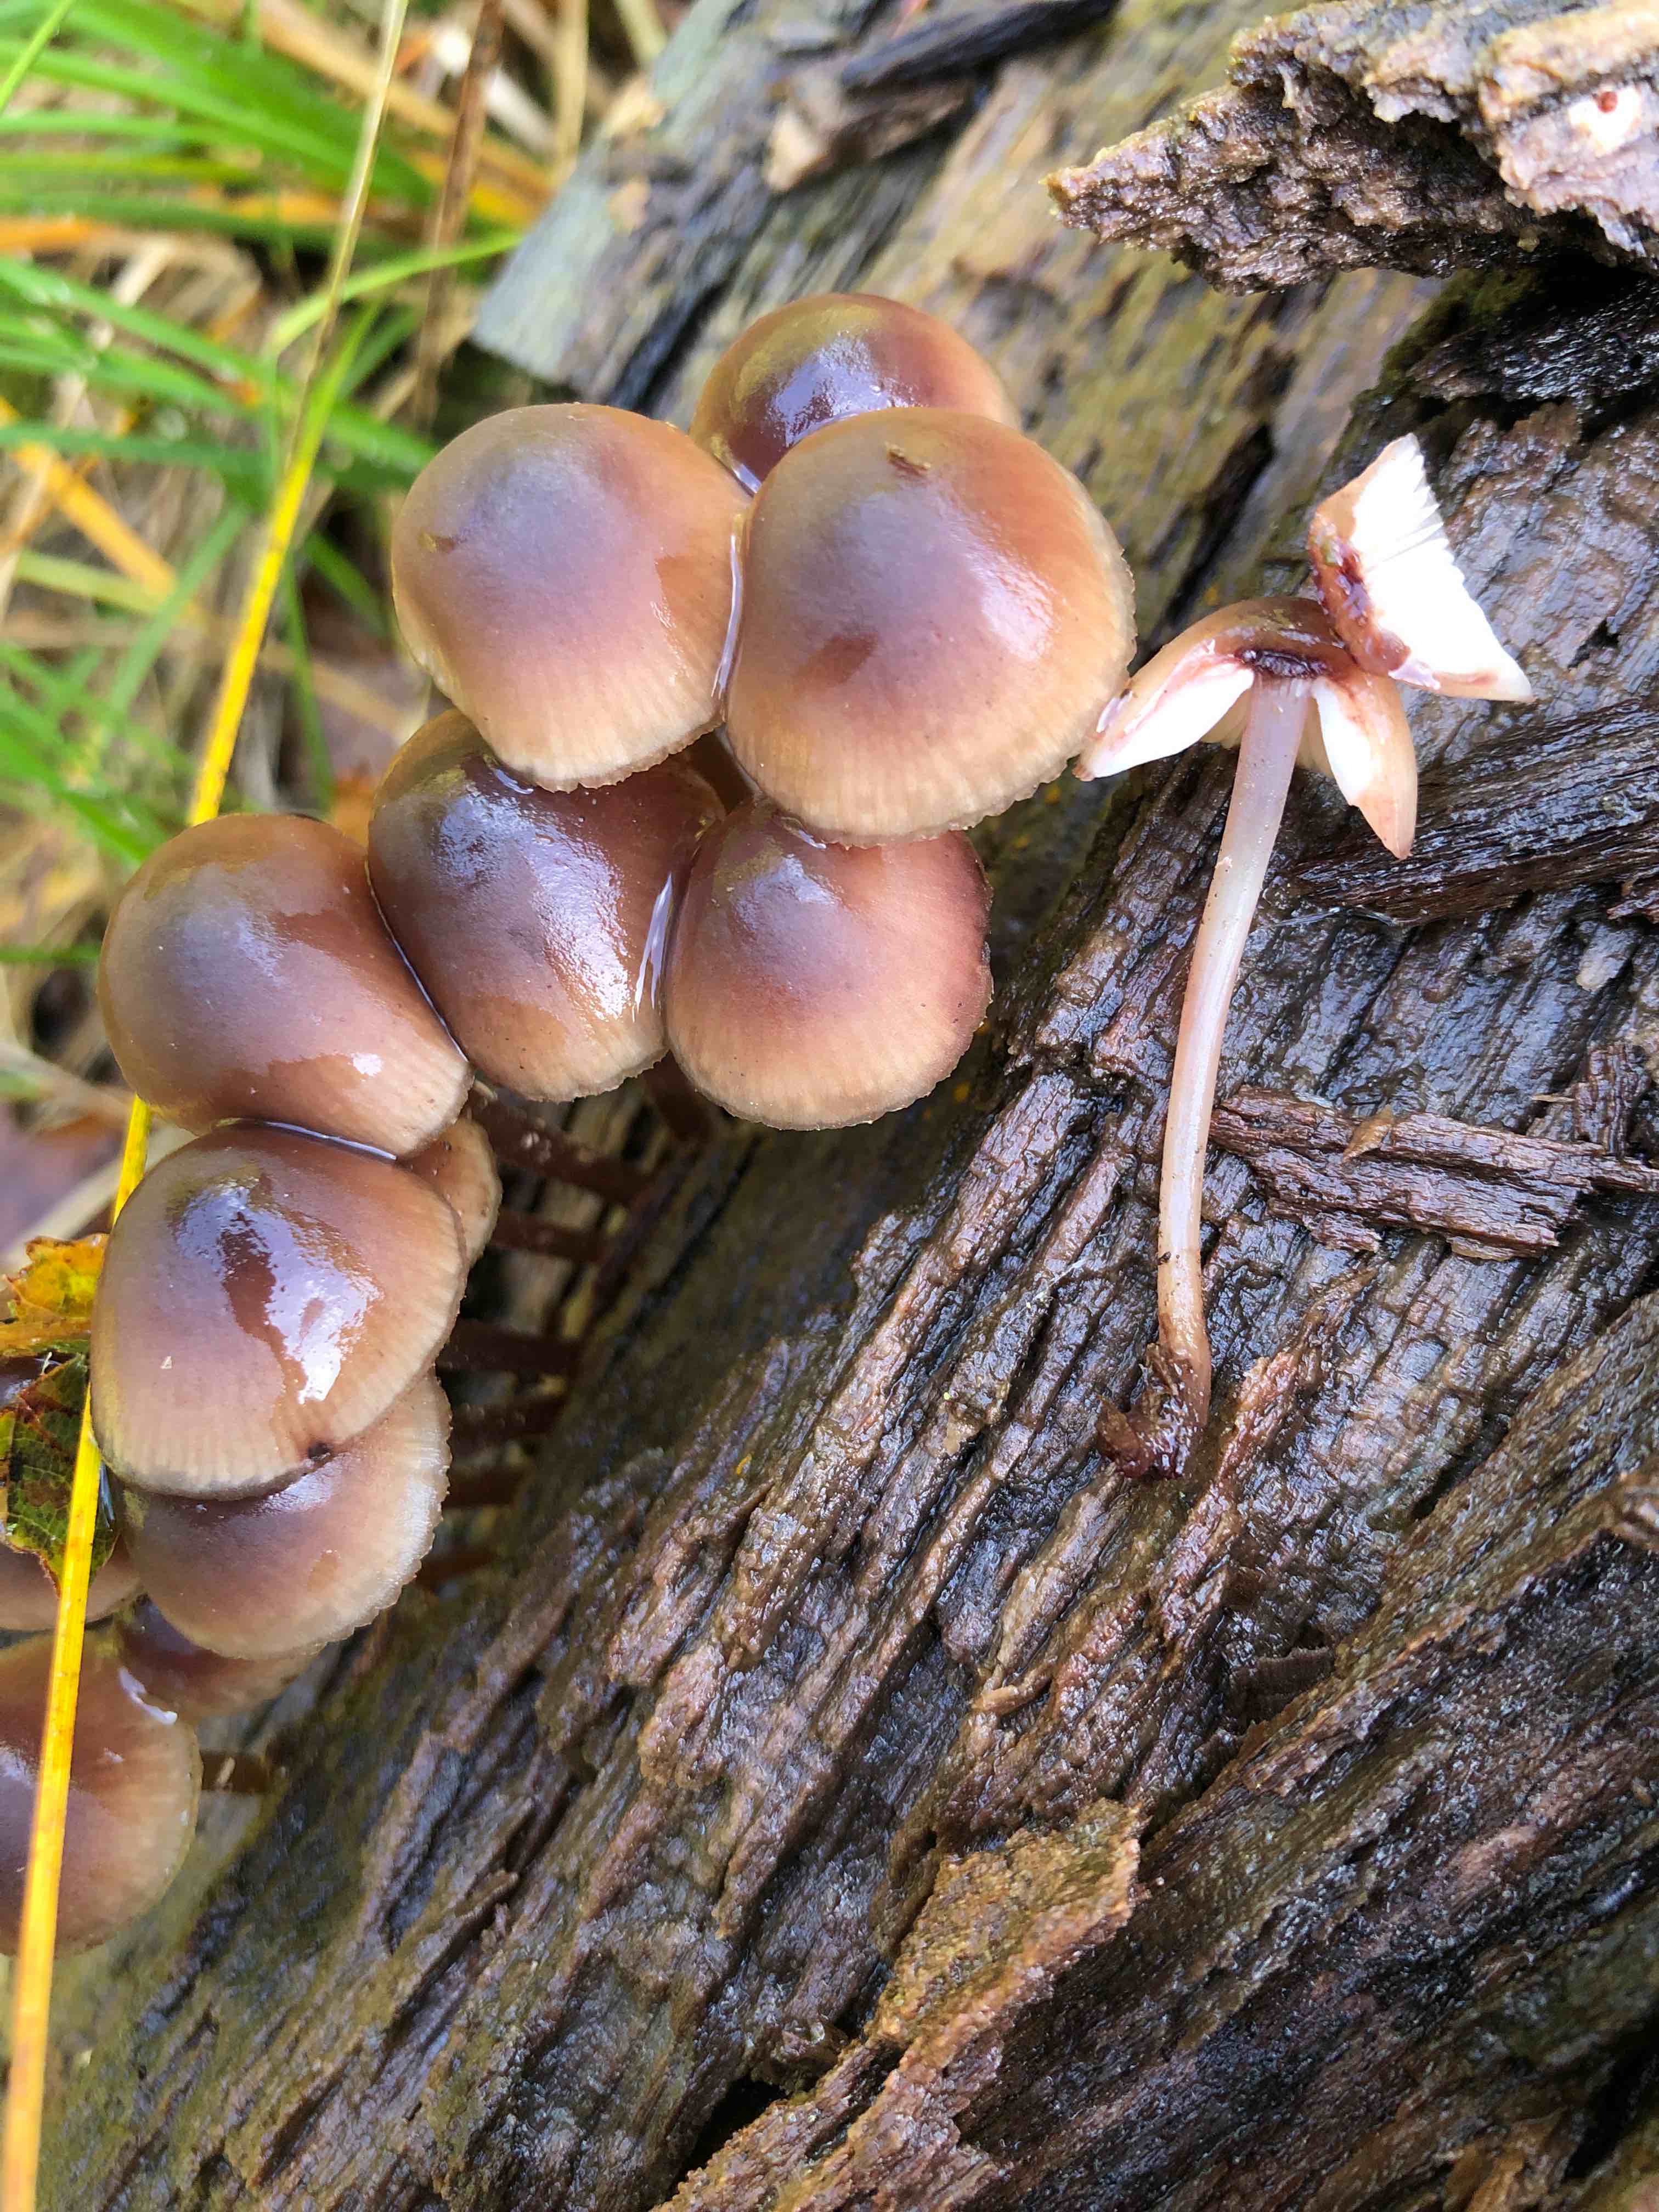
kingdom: Fungi
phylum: Basidiomycota
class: Agaricomycetes
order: Agaricales
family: Mycenaceae
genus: Mycena
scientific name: Mycena haematopus
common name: blødende huesvamp
